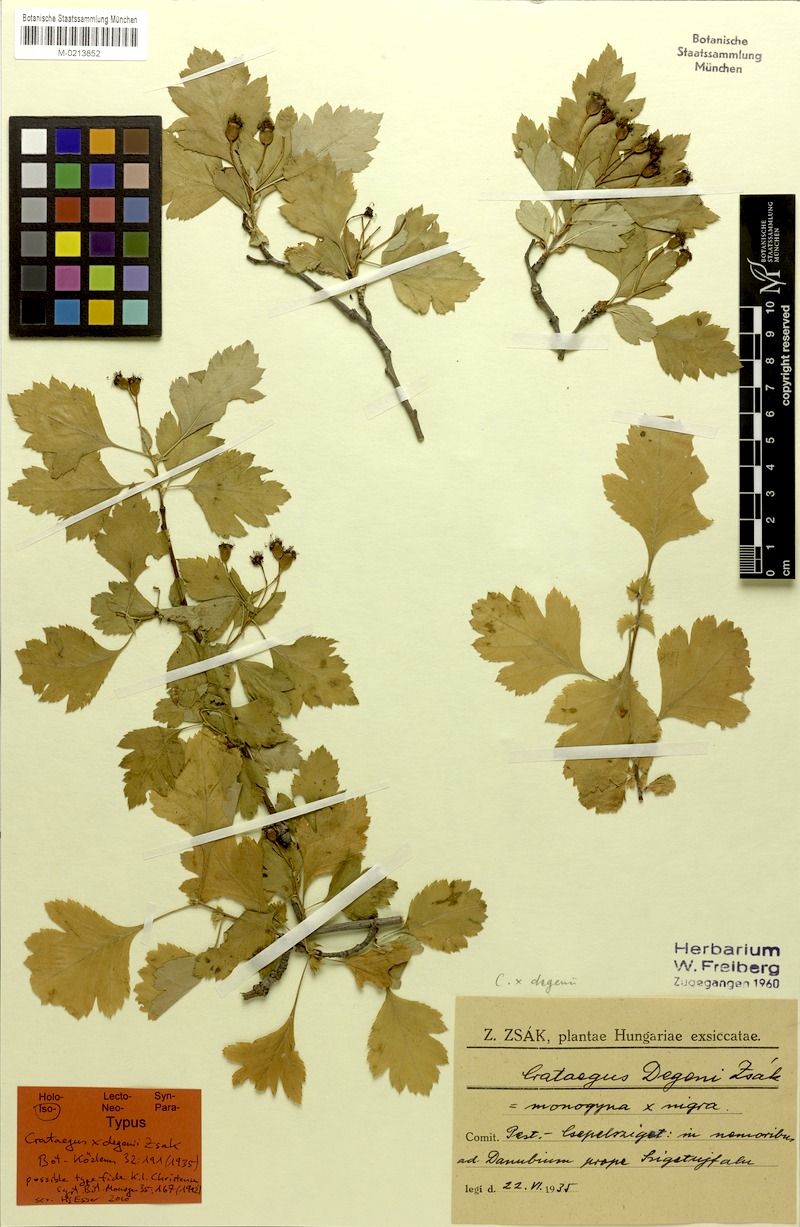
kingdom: Plantae
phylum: Tracheophyta
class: Magnoliopsida
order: Rosales
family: Rosaceae
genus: Crataegus
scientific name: Crataegus lambertiana
